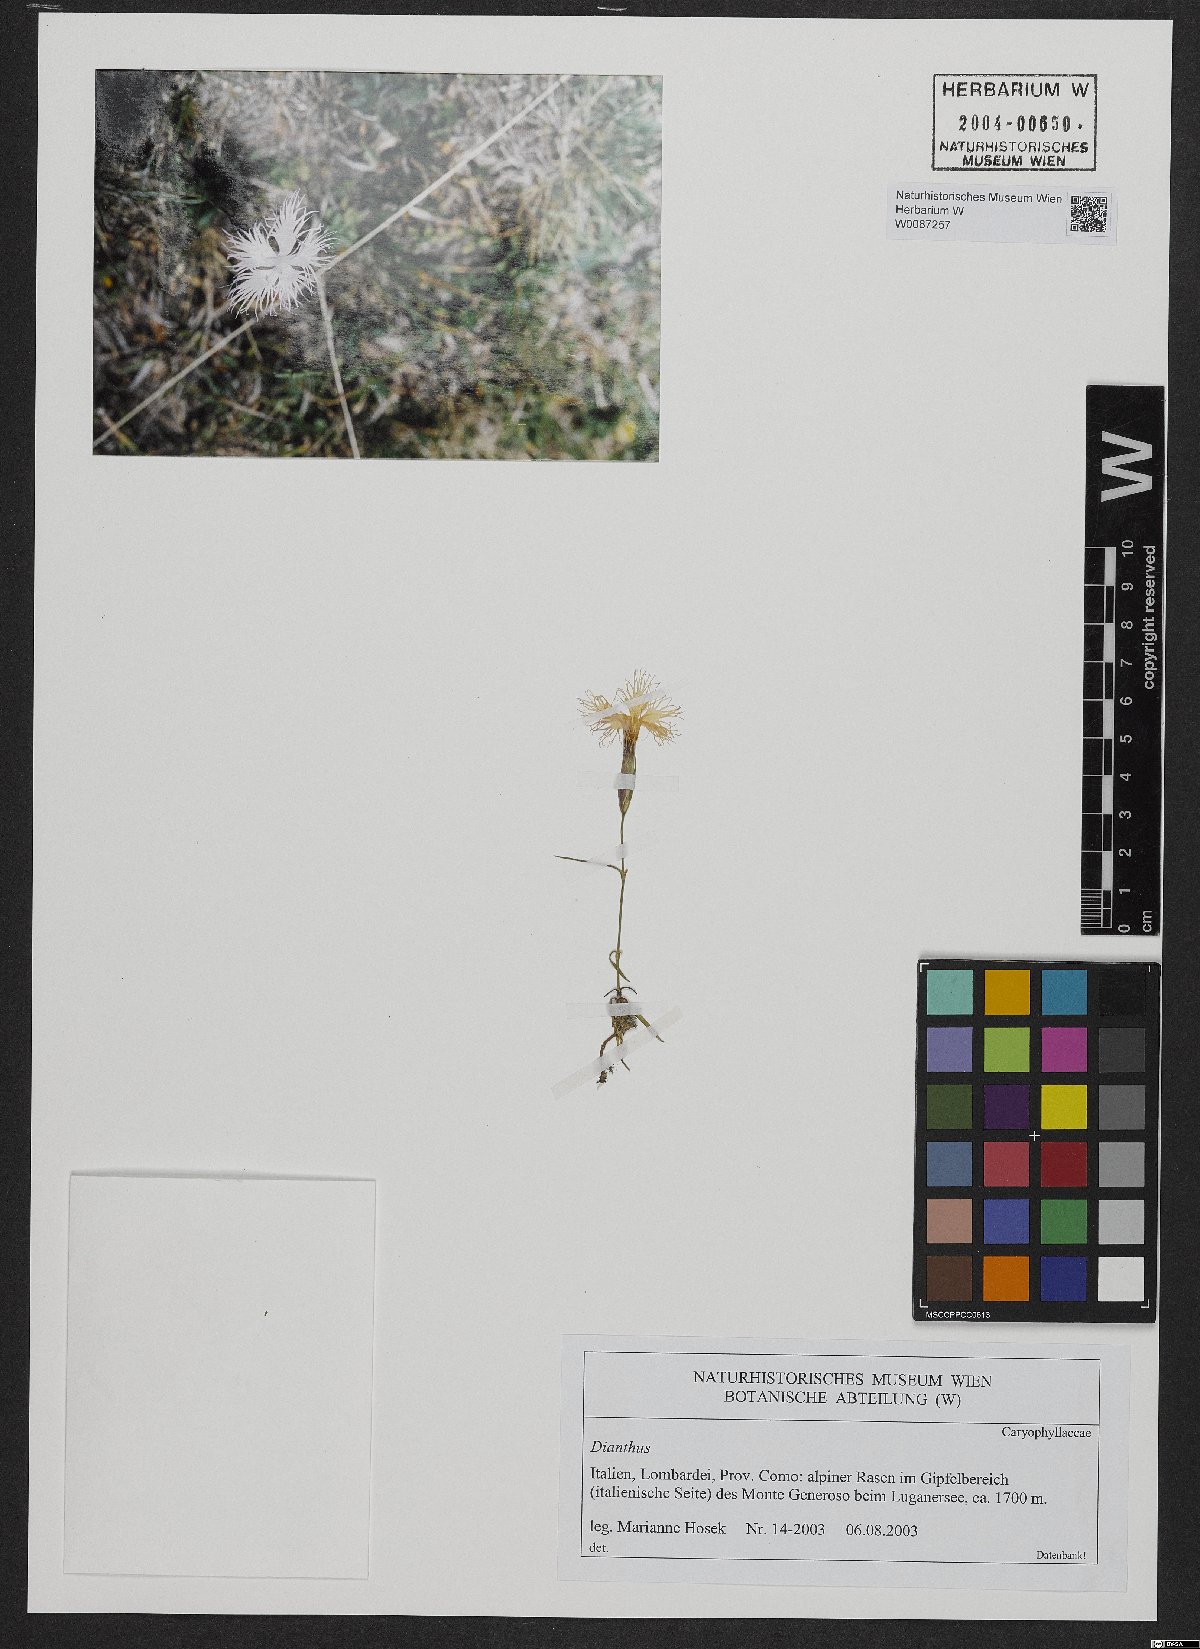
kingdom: Plantae
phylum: Tracheophyta
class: Magnoliopsida
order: Caryophyllales
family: Caryophyllaceae
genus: Dianthus
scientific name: Dianthus
